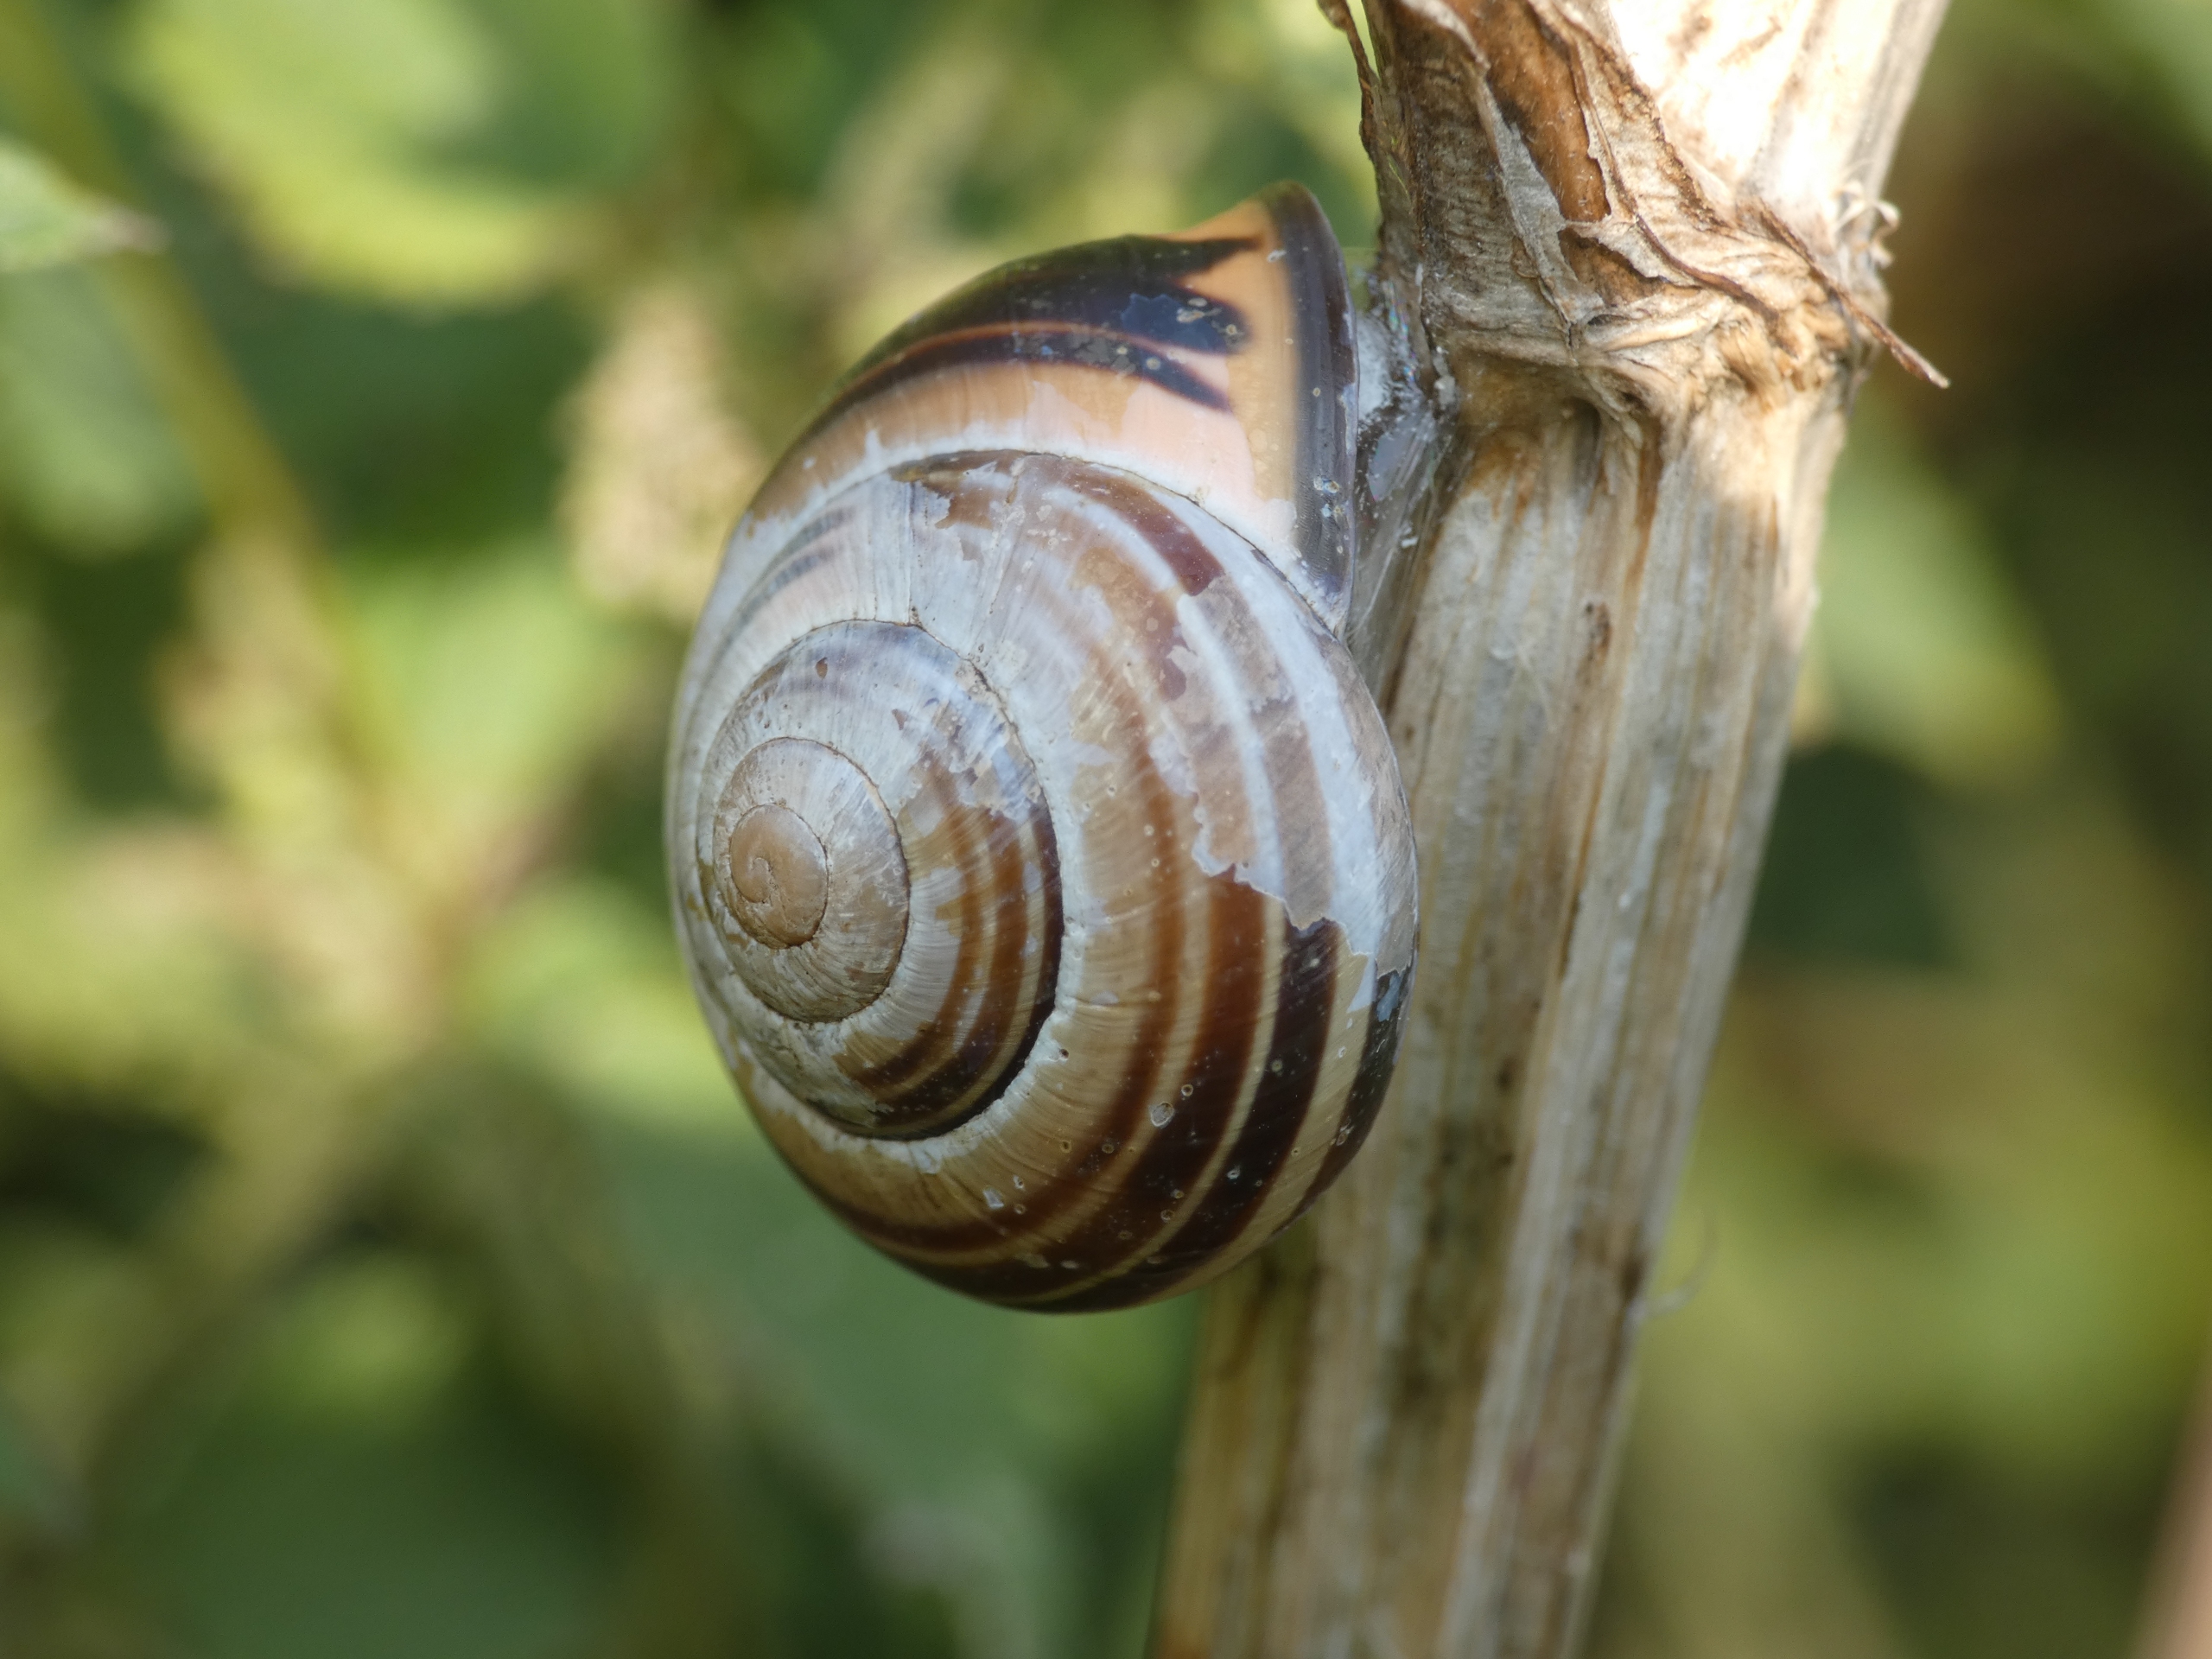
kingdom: Animalia
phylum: Mollusca
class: Gastropoda
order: Stylommatophora
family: Helicidae
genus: Cepaea
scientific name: Cepaea nemoralis
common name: Lundsnegl
